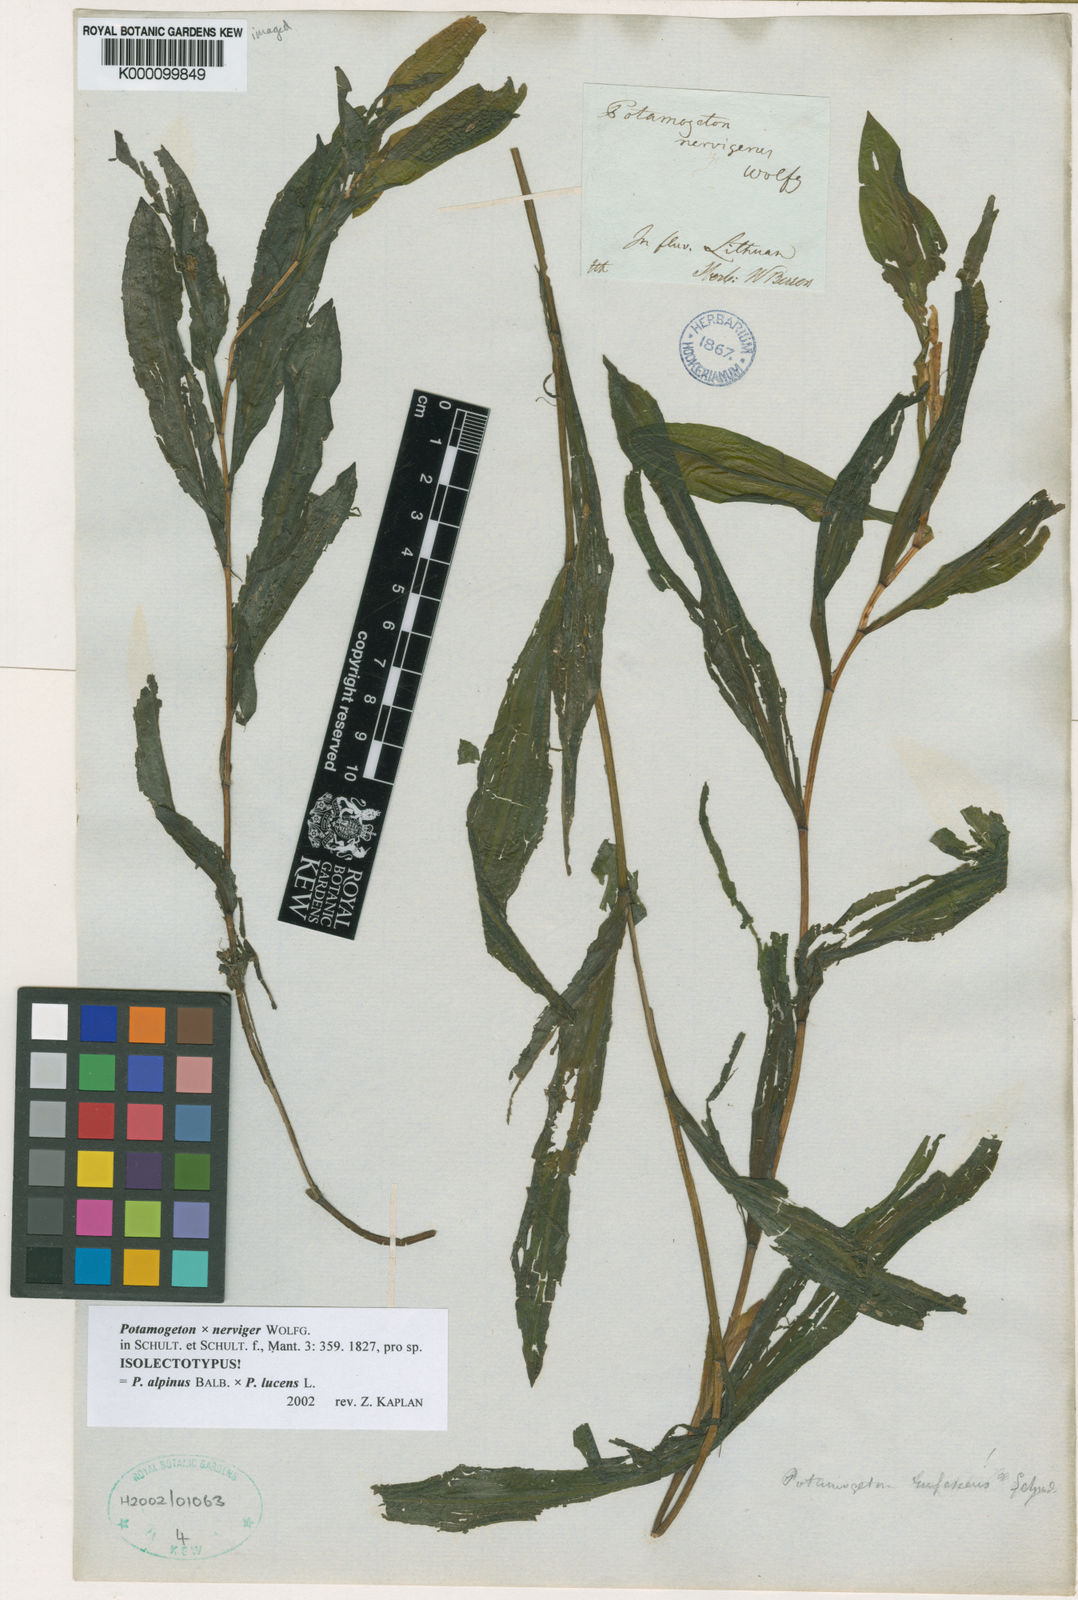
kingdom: Plantae
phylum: Tracheophyta
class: Liliopsida
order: Alismatales
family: Potamogetonaceae
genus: Potamogeton
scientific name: Potamogeton
